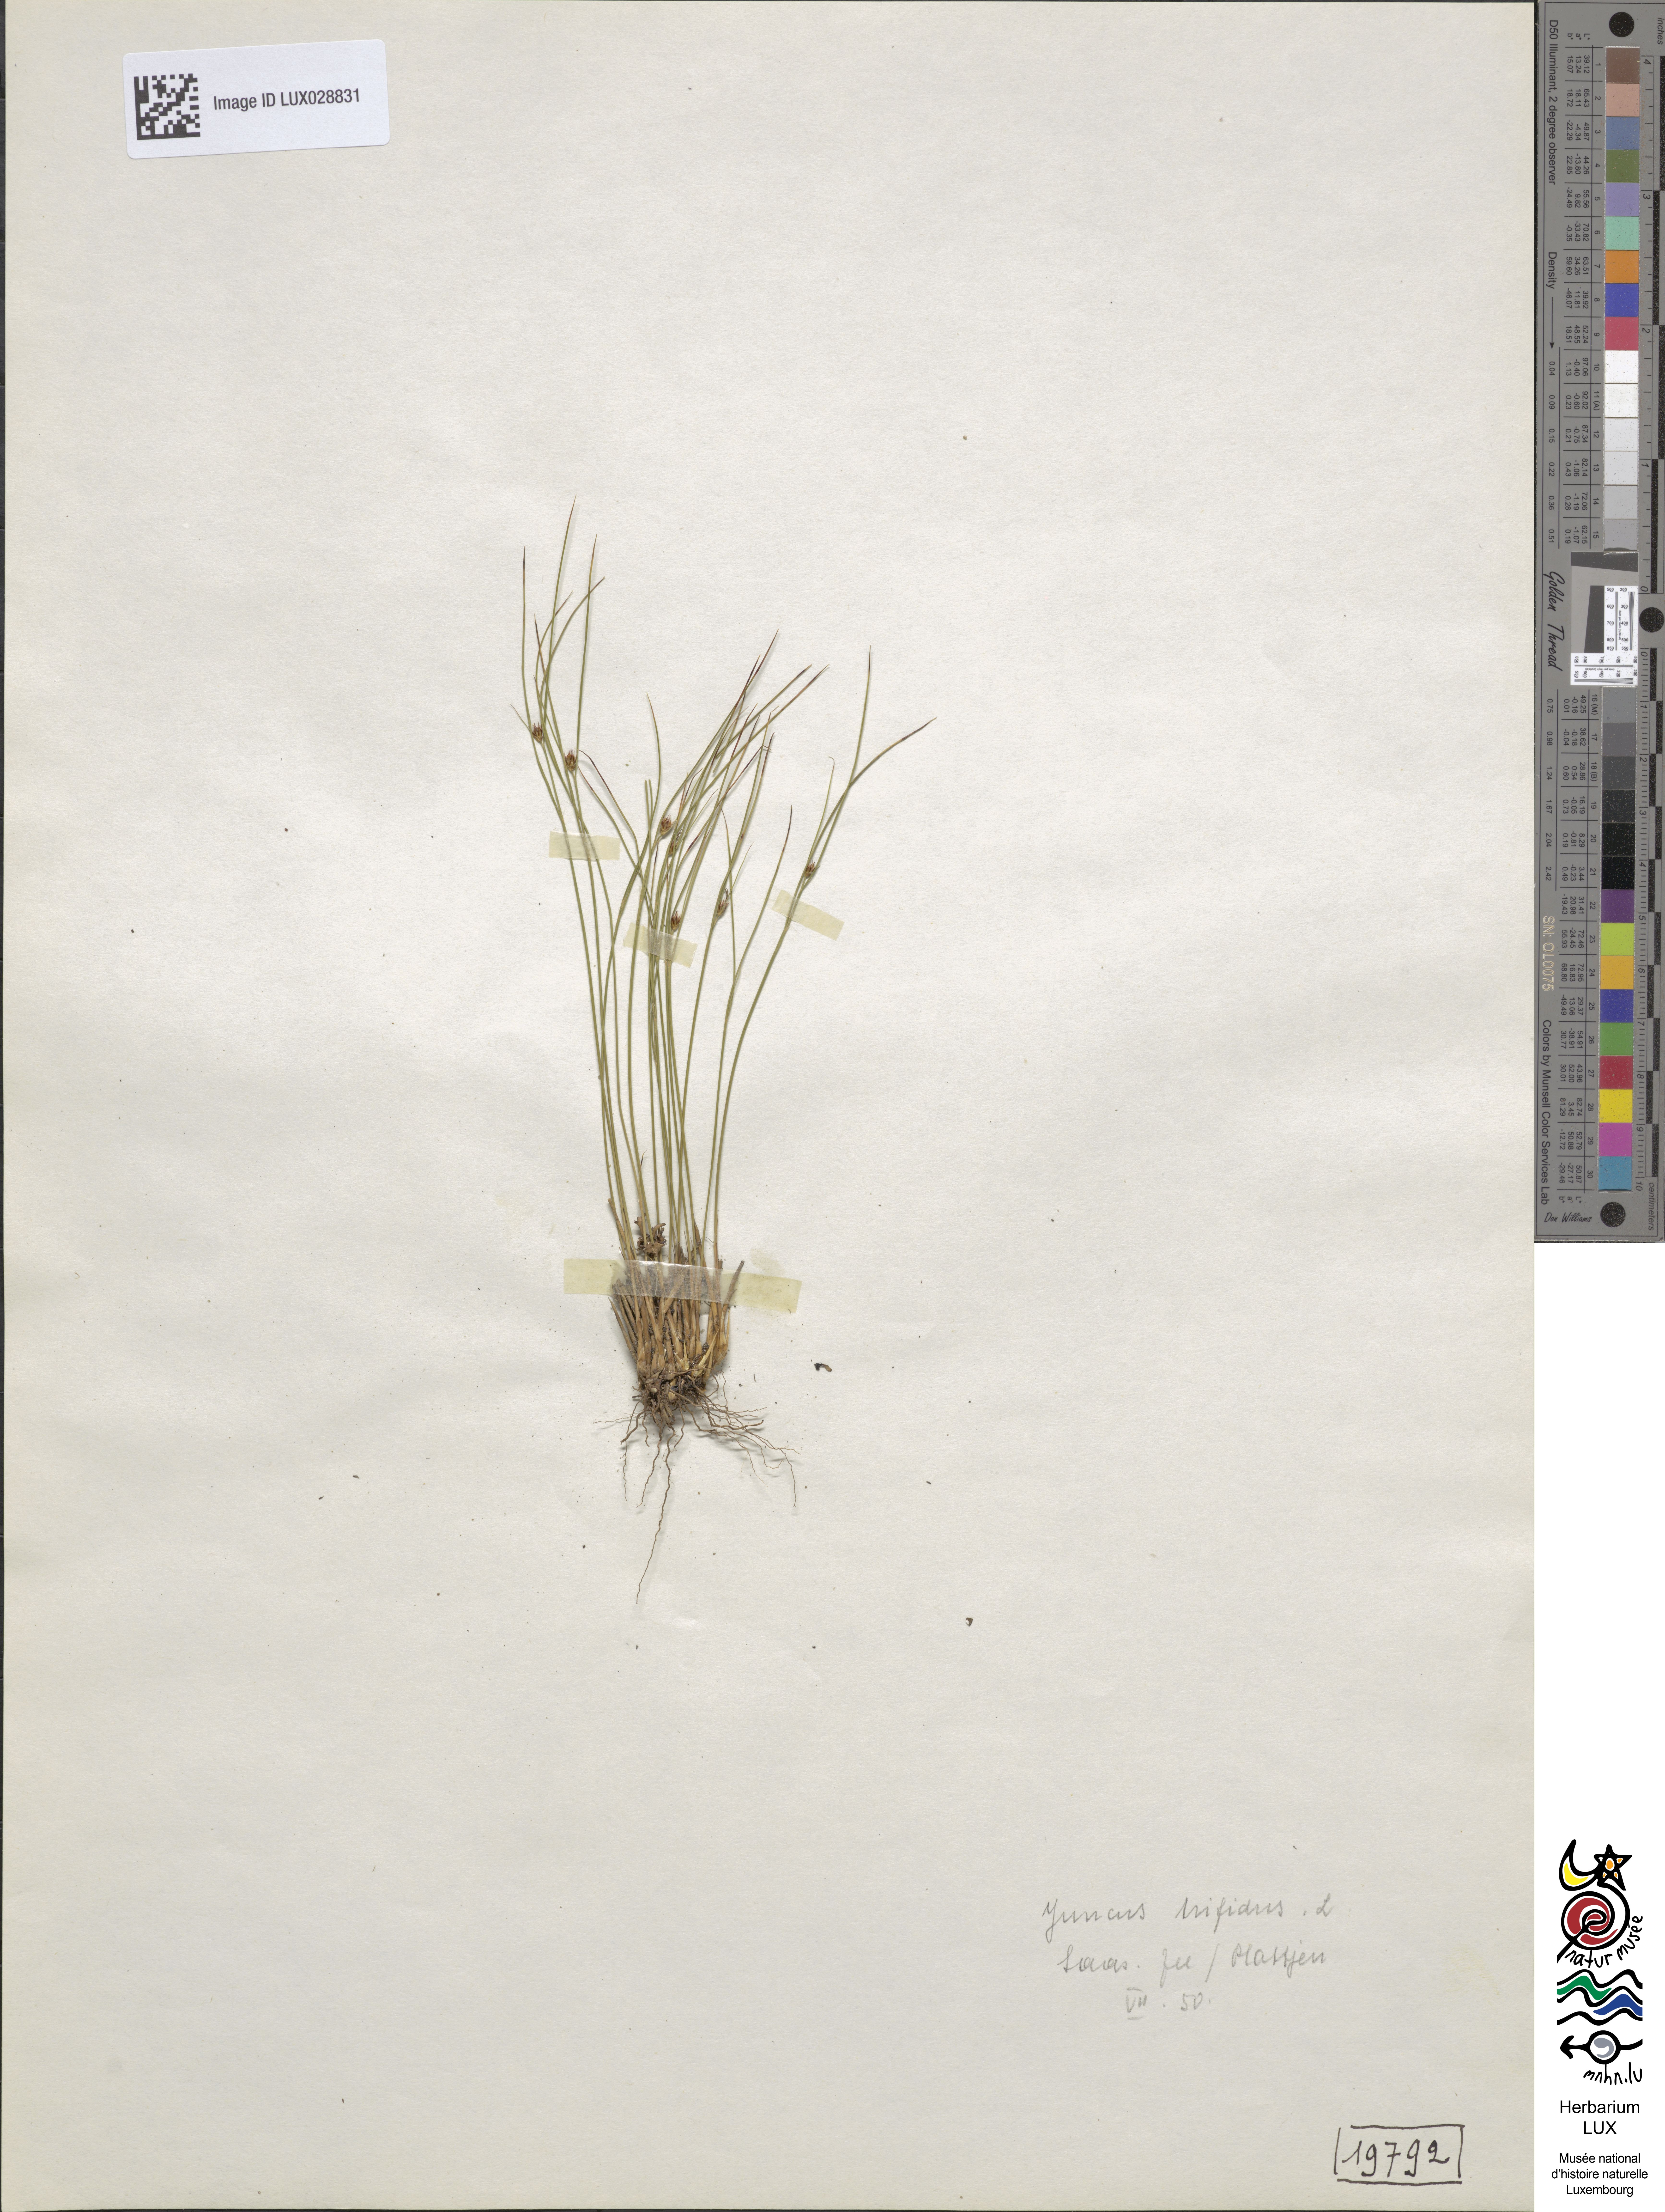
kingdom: Plantae
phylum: Tracheophyta
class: Liliopsida
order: Poales
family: Juncaceae
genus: Oreojuncus
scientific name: Oreojuncus trifidus
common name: Highland rush
